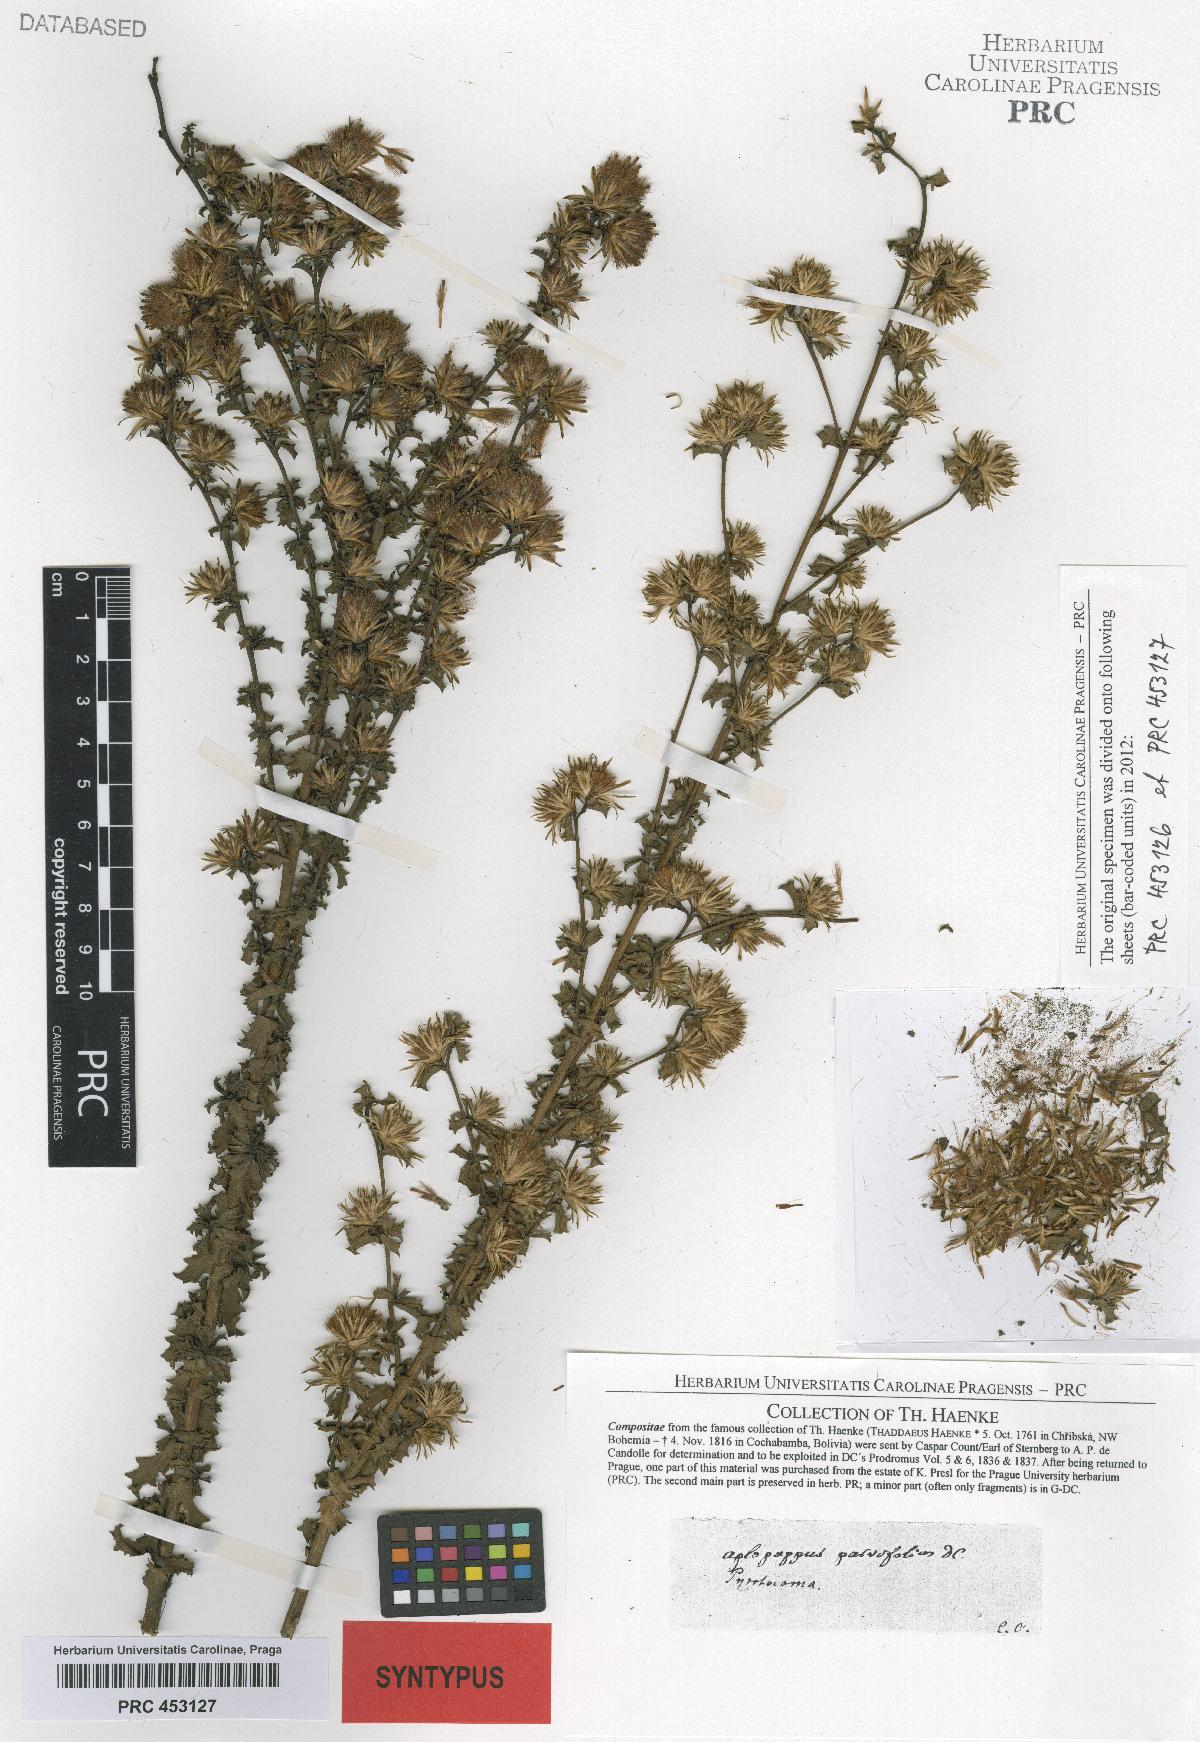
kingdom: Plantae
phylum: Tracheophyta
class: Magnoliopsida
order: Asterales
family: Asteraceae
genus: Haplopappus
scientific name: Haplopappus parvifolius
